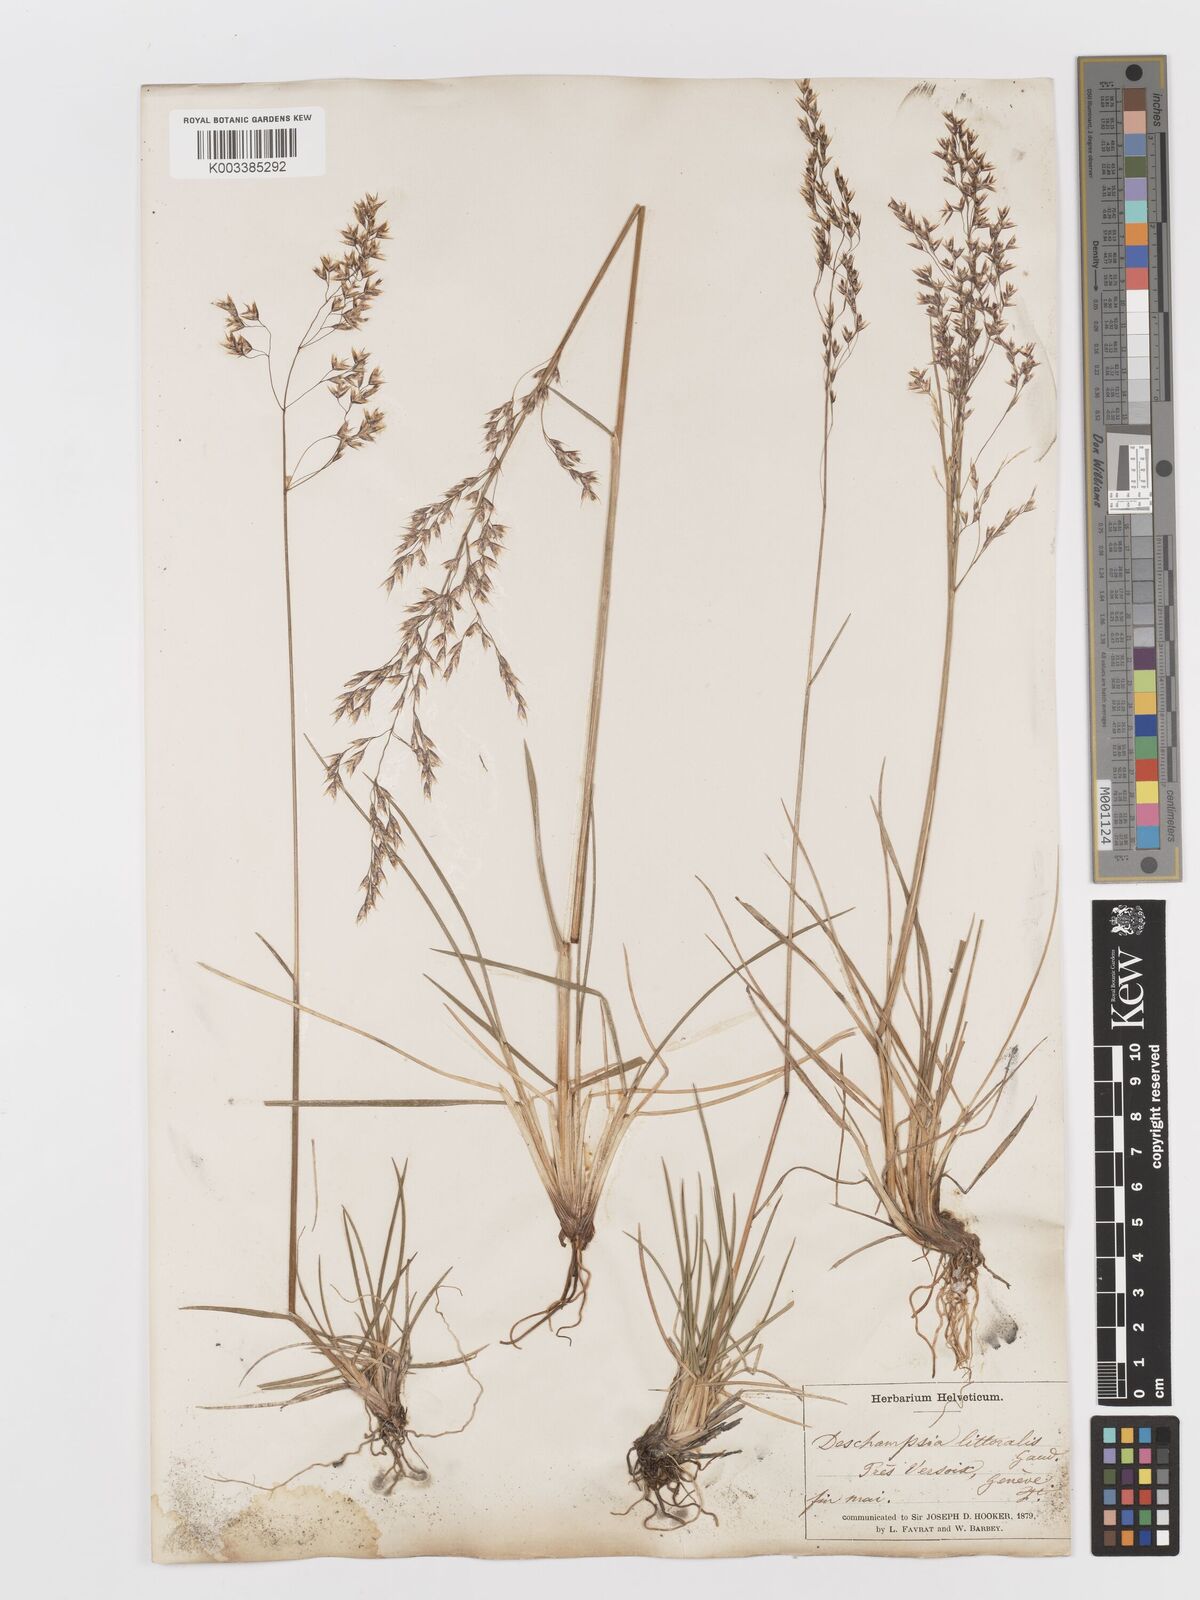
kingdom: Plantae
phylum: Tracheophyta
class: Liliopsida
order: Poales
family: Poaceae
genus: Deschampsia
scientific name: Deschampsia cespitosa
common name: Tufted hair-grass
